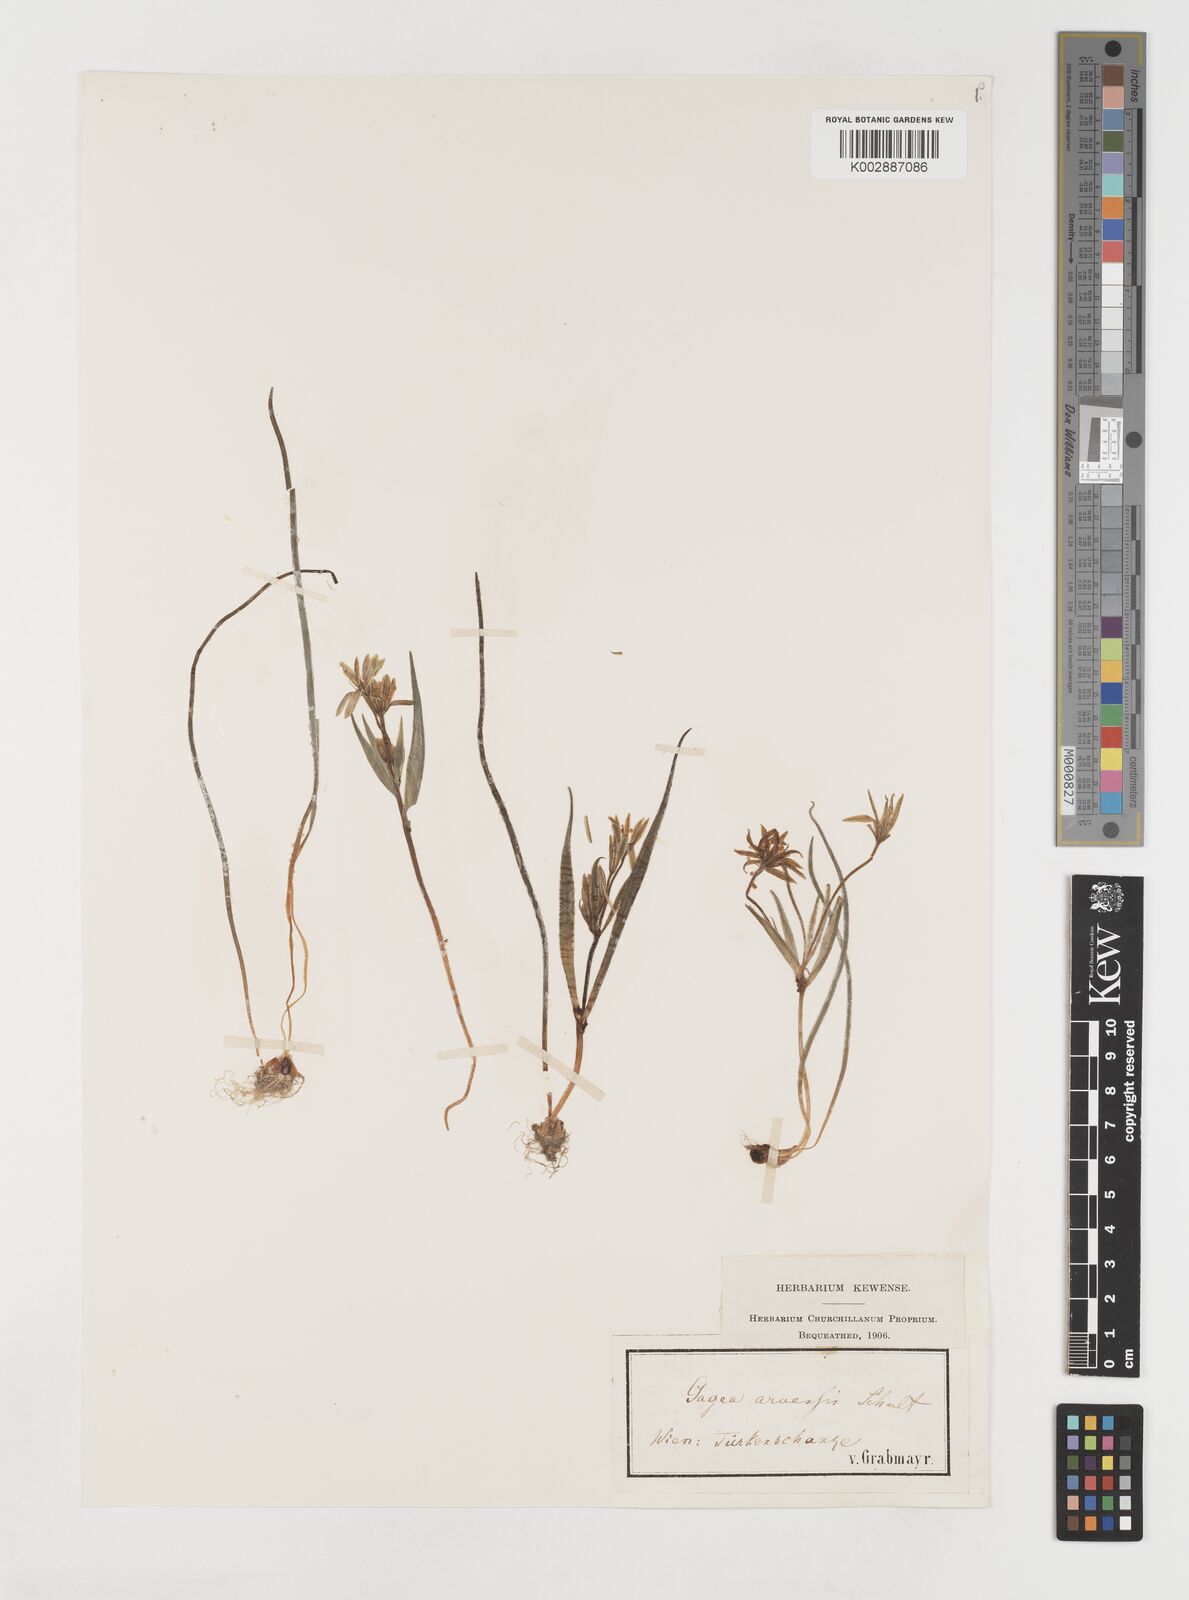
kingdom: Plantae
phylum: Tracheophyta
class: Liliopsida
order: Liliales
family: Liliaceae
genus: Gagea
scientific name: Gagea minima
